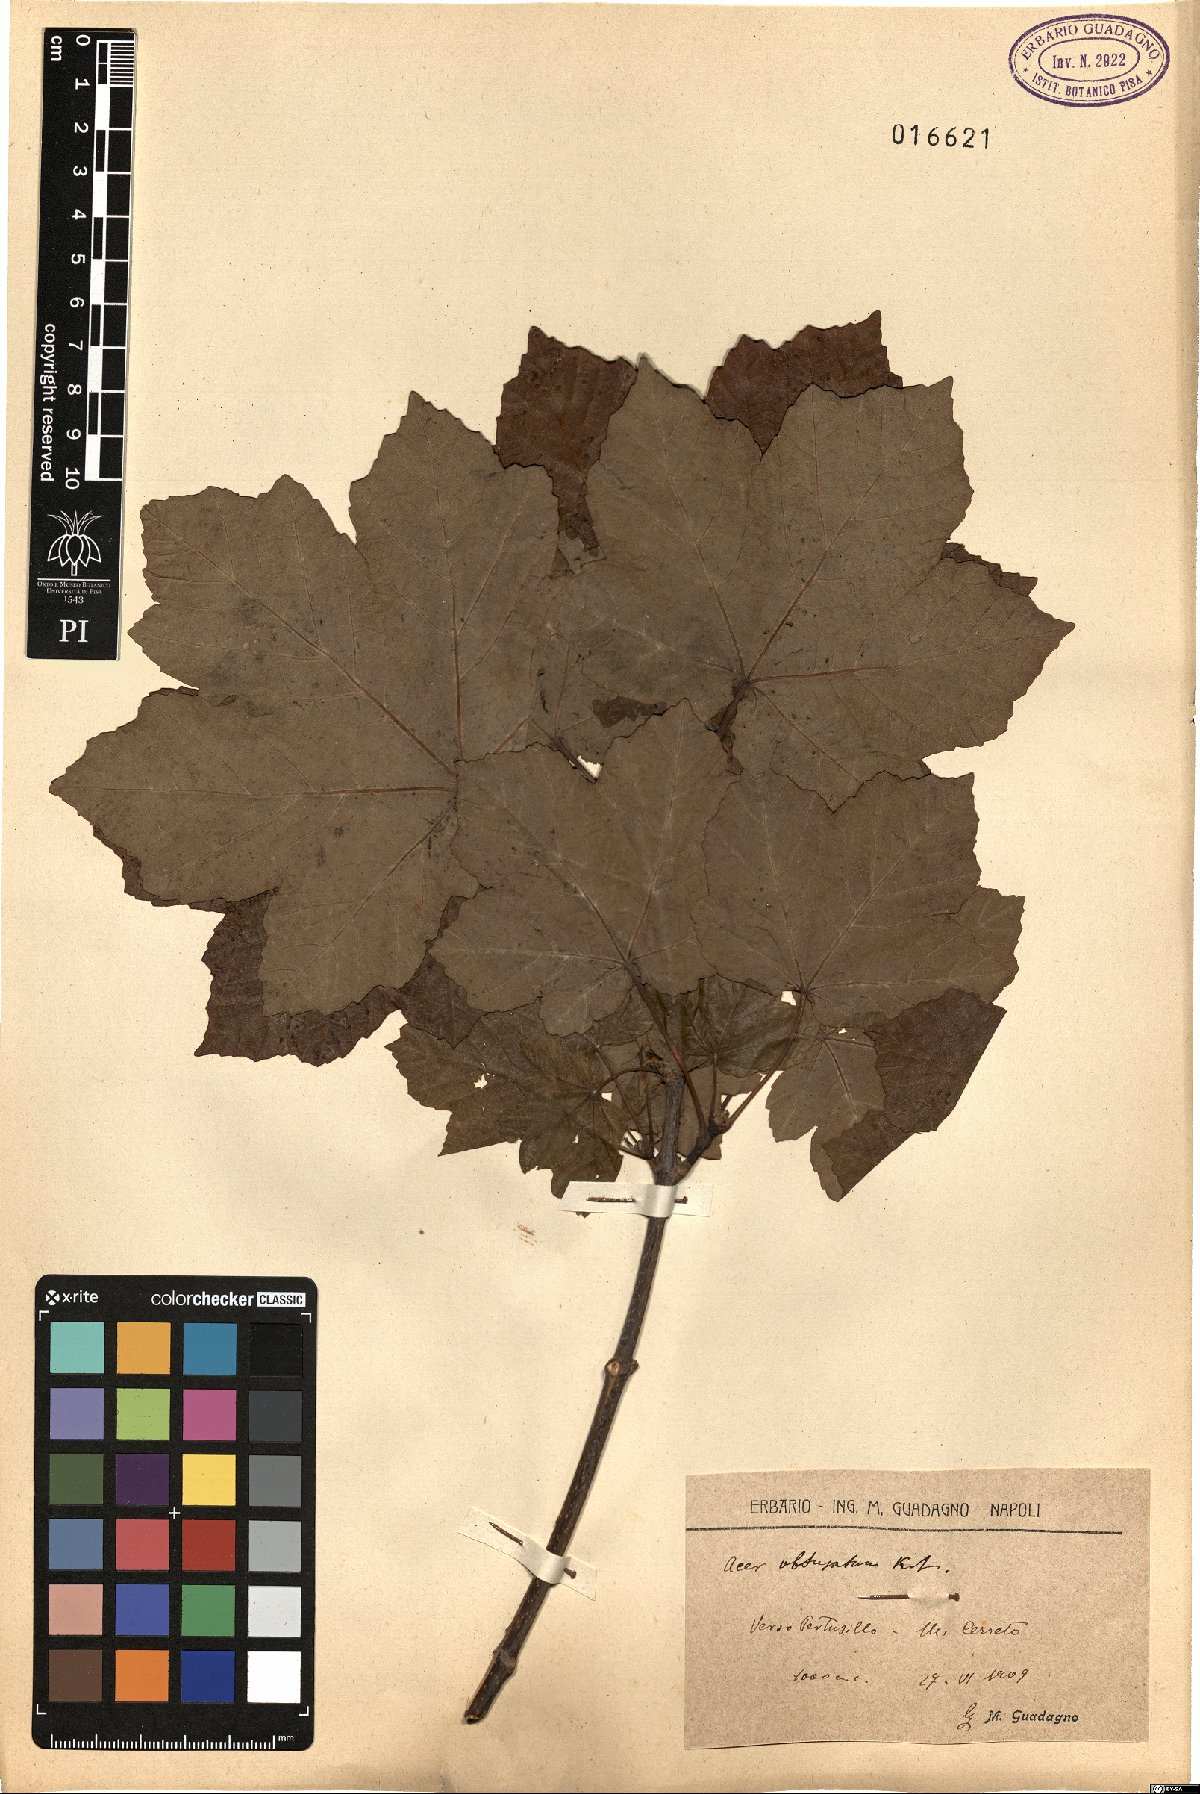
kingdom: Plantae
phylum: Tracheophyta
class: Magnoliopsida
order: Sapindales
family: Sapindaceae
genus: Acer
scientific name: Acer obtusatum
